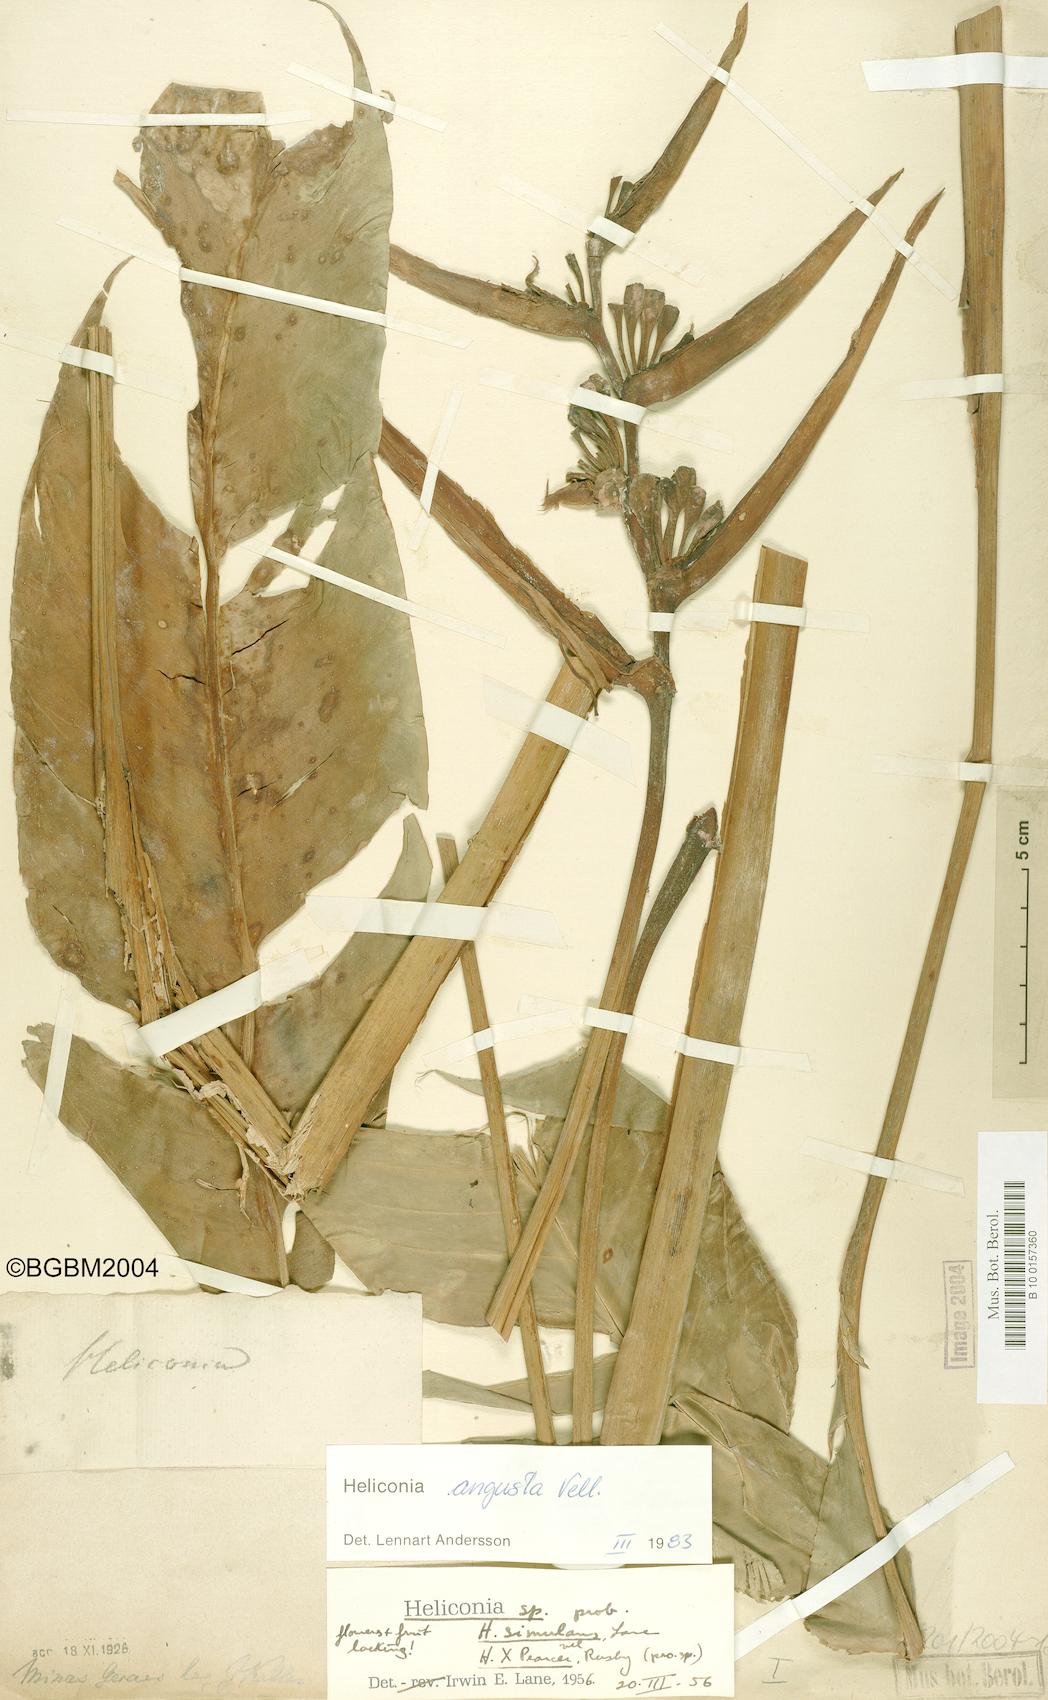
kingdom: Plantae
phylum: Tracheophyta
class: Liliopsida
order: Zingiberales
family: Heliconiaceae
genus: Heliconia
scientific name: Heliconia angusta
